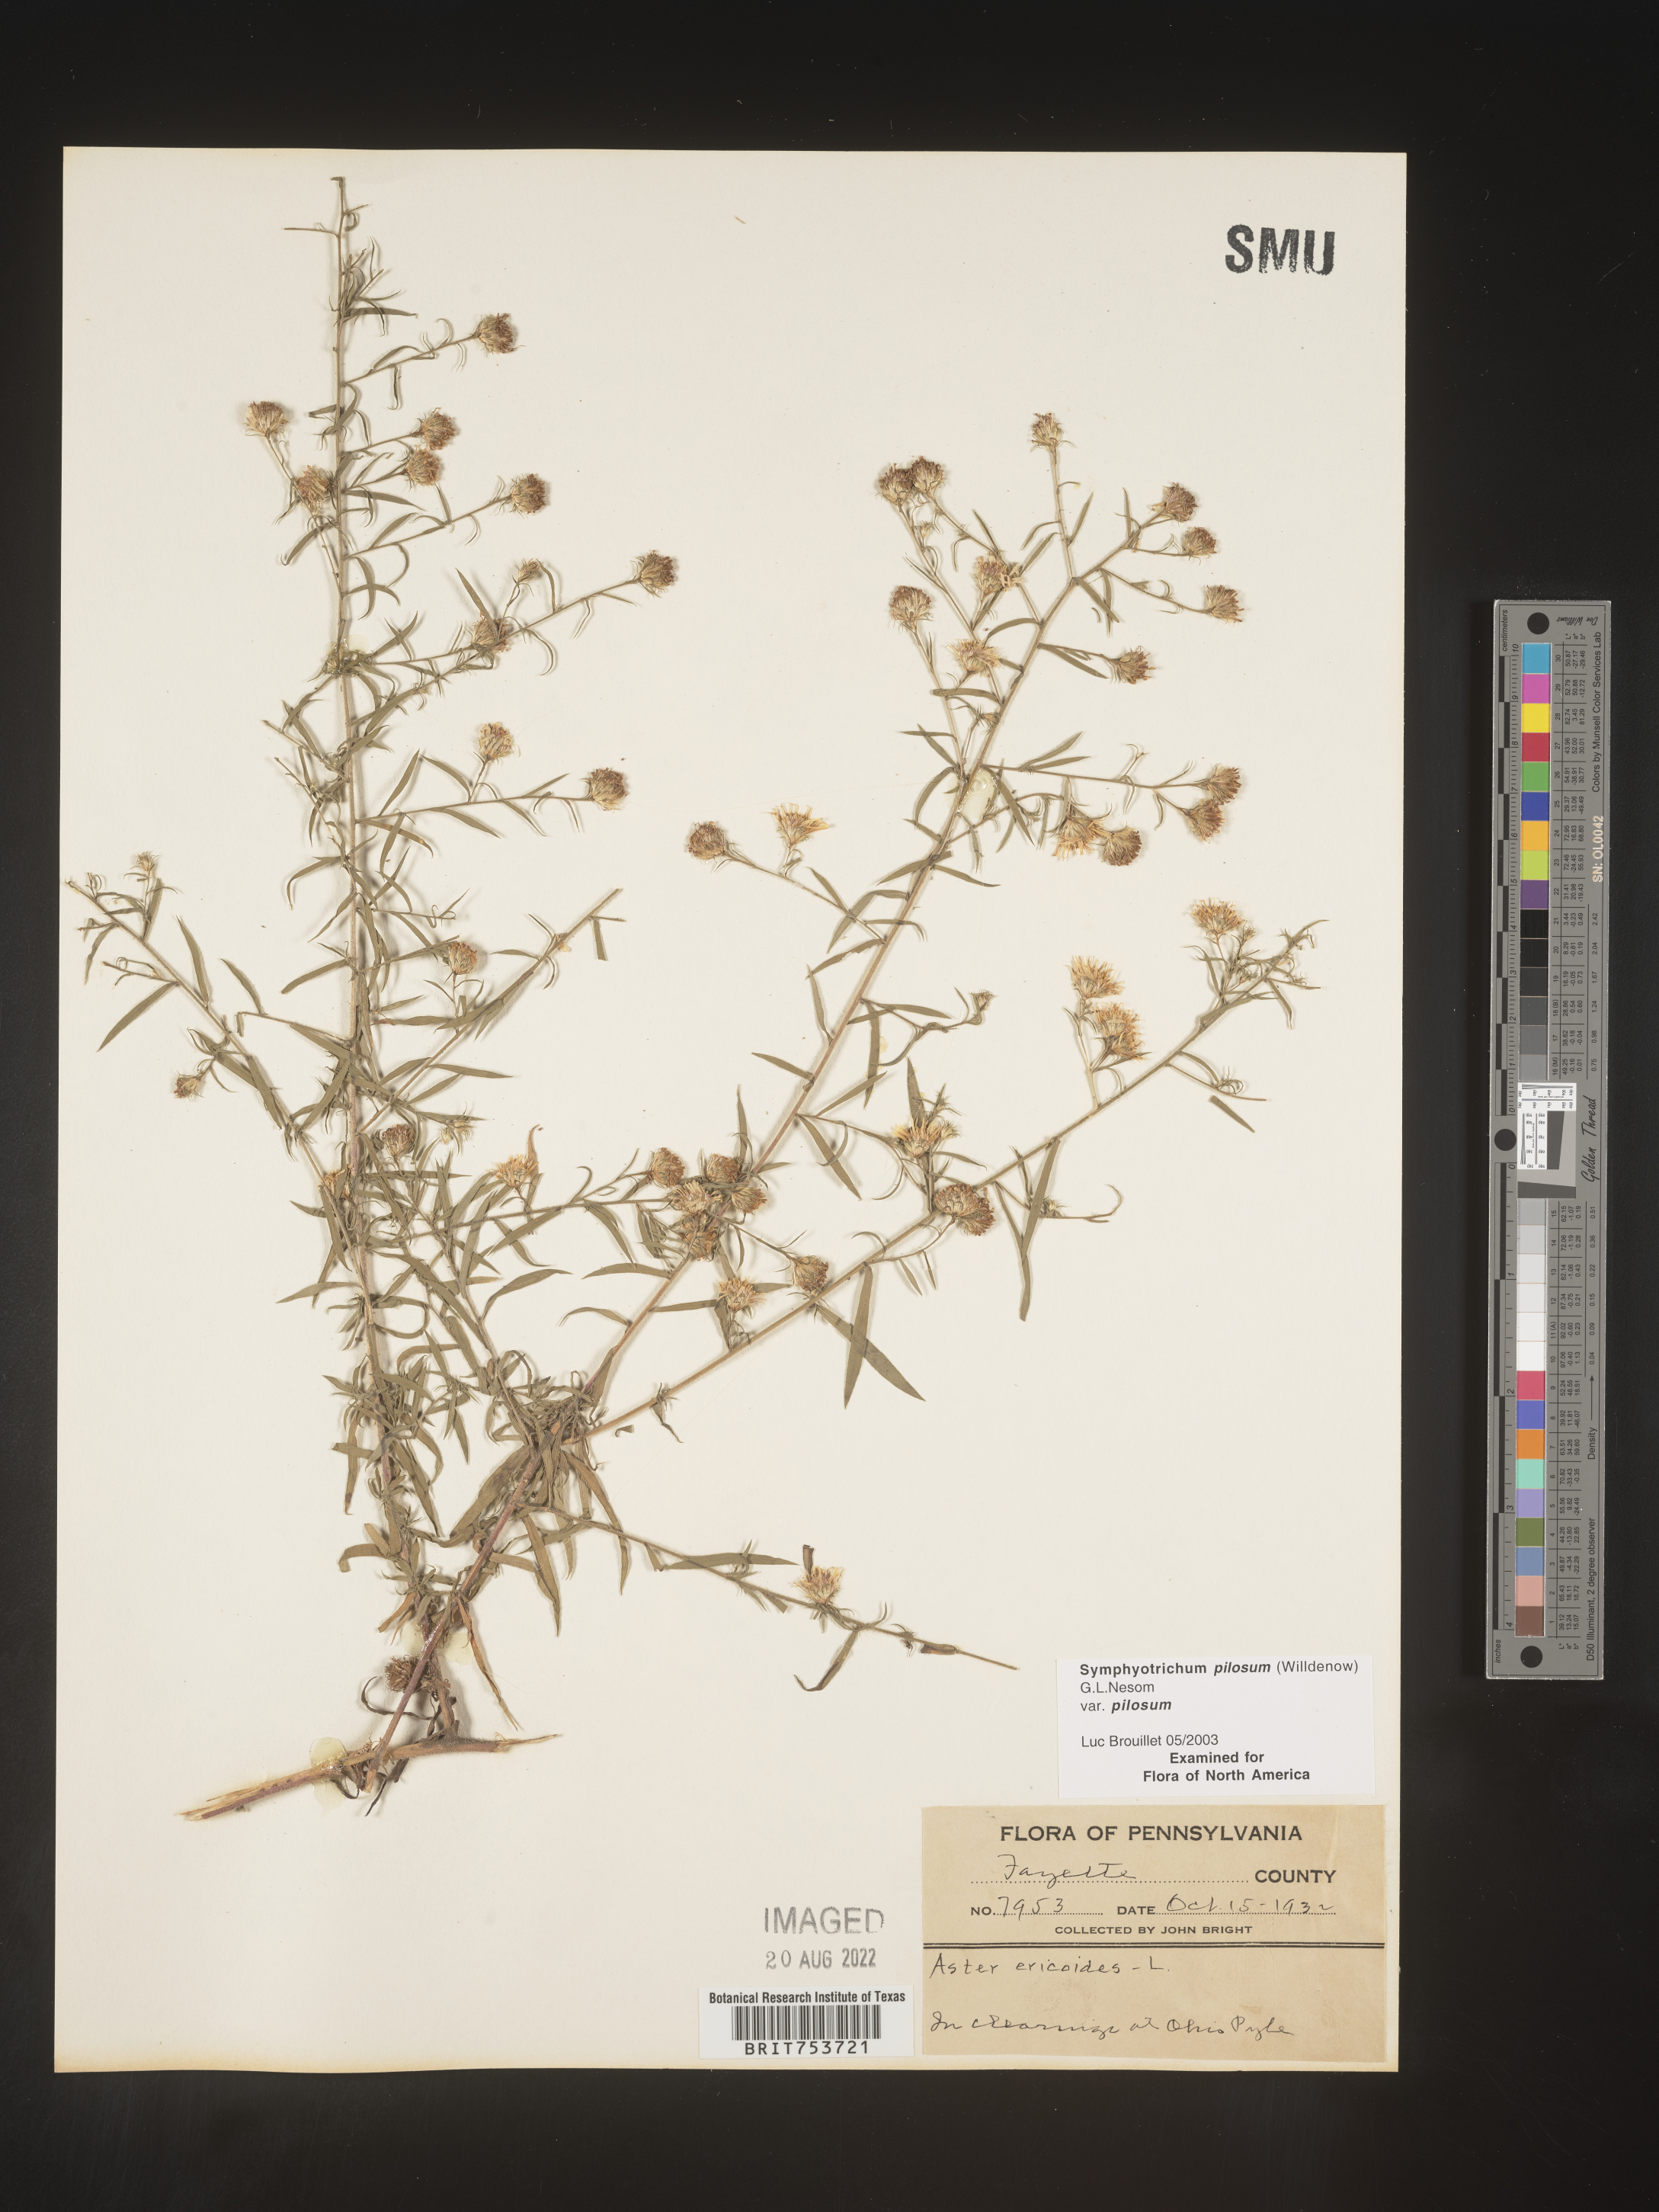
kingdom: Plantae
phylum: Tracheophyta
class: Magnoliopsida
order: Asterales
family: Asteraceae
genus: Symphyotrichum
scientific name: Symphyotrichum pilosum
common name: Awl aster
